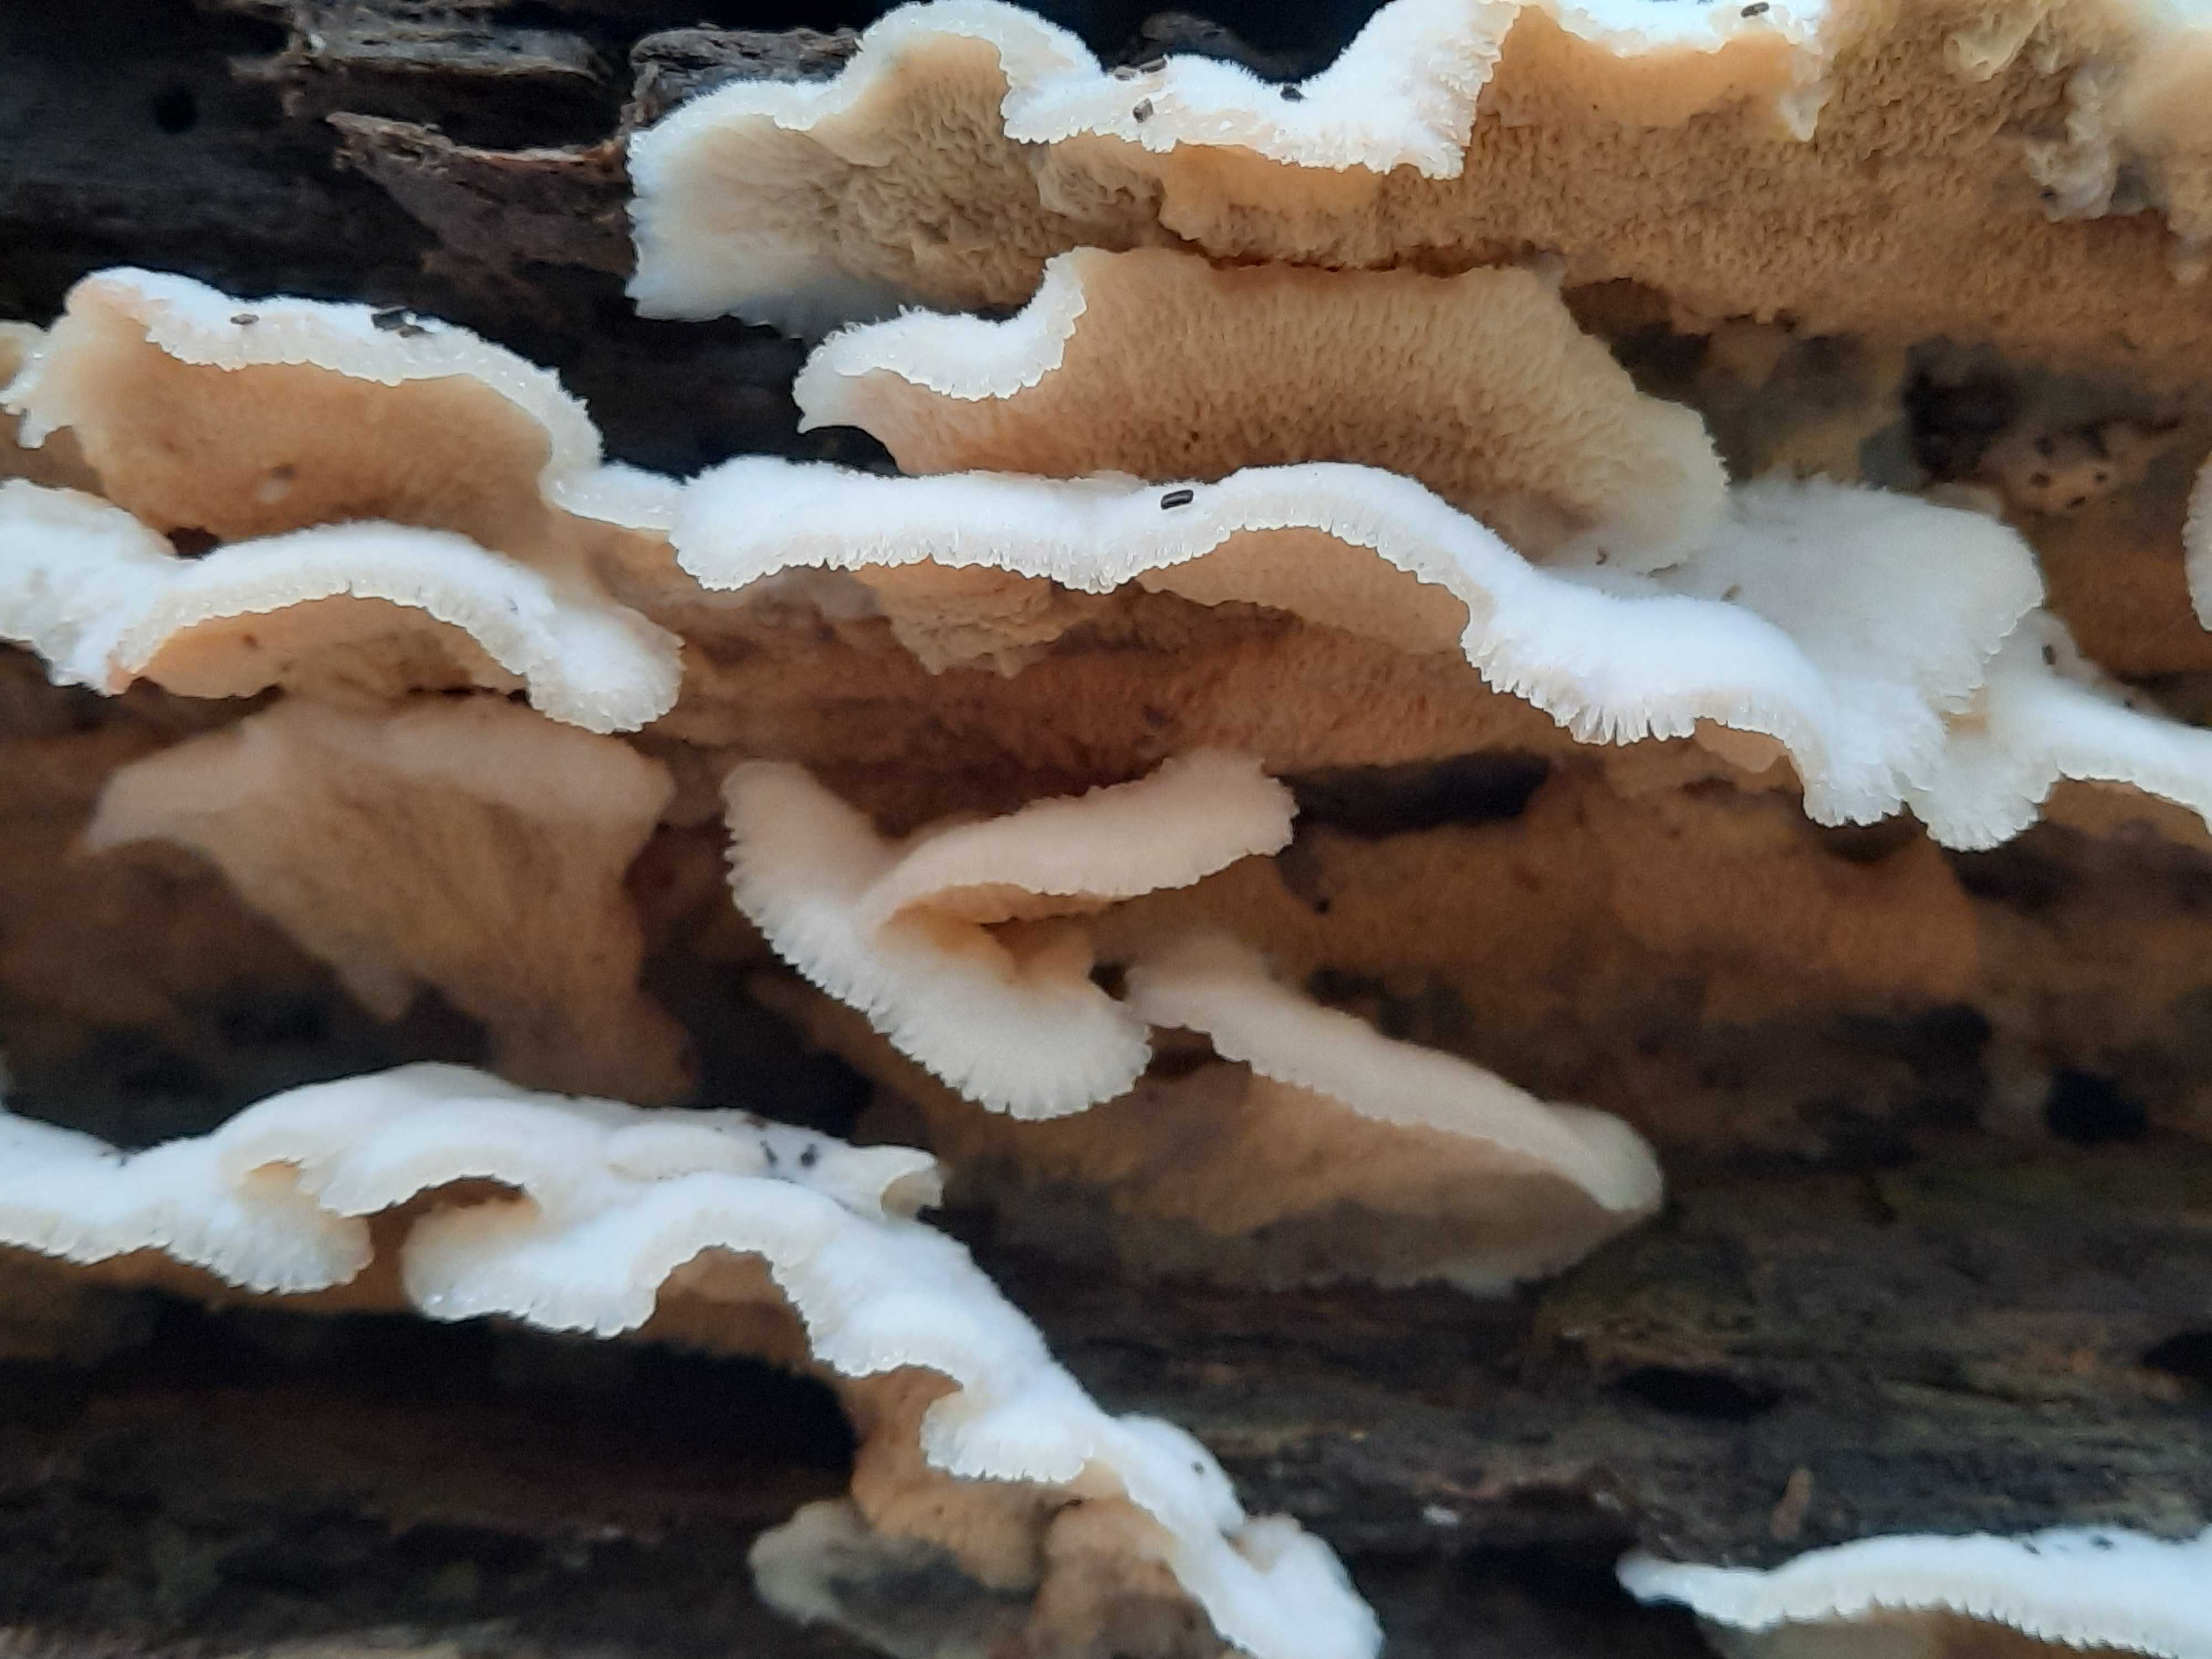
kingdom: Fungi
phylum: Basidiomycota
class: Agaricomycetes
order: Polyporales
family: Meruliaceae
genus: Phlebia
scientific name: Phlebia tremellosa
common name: bævrende åresvamp
